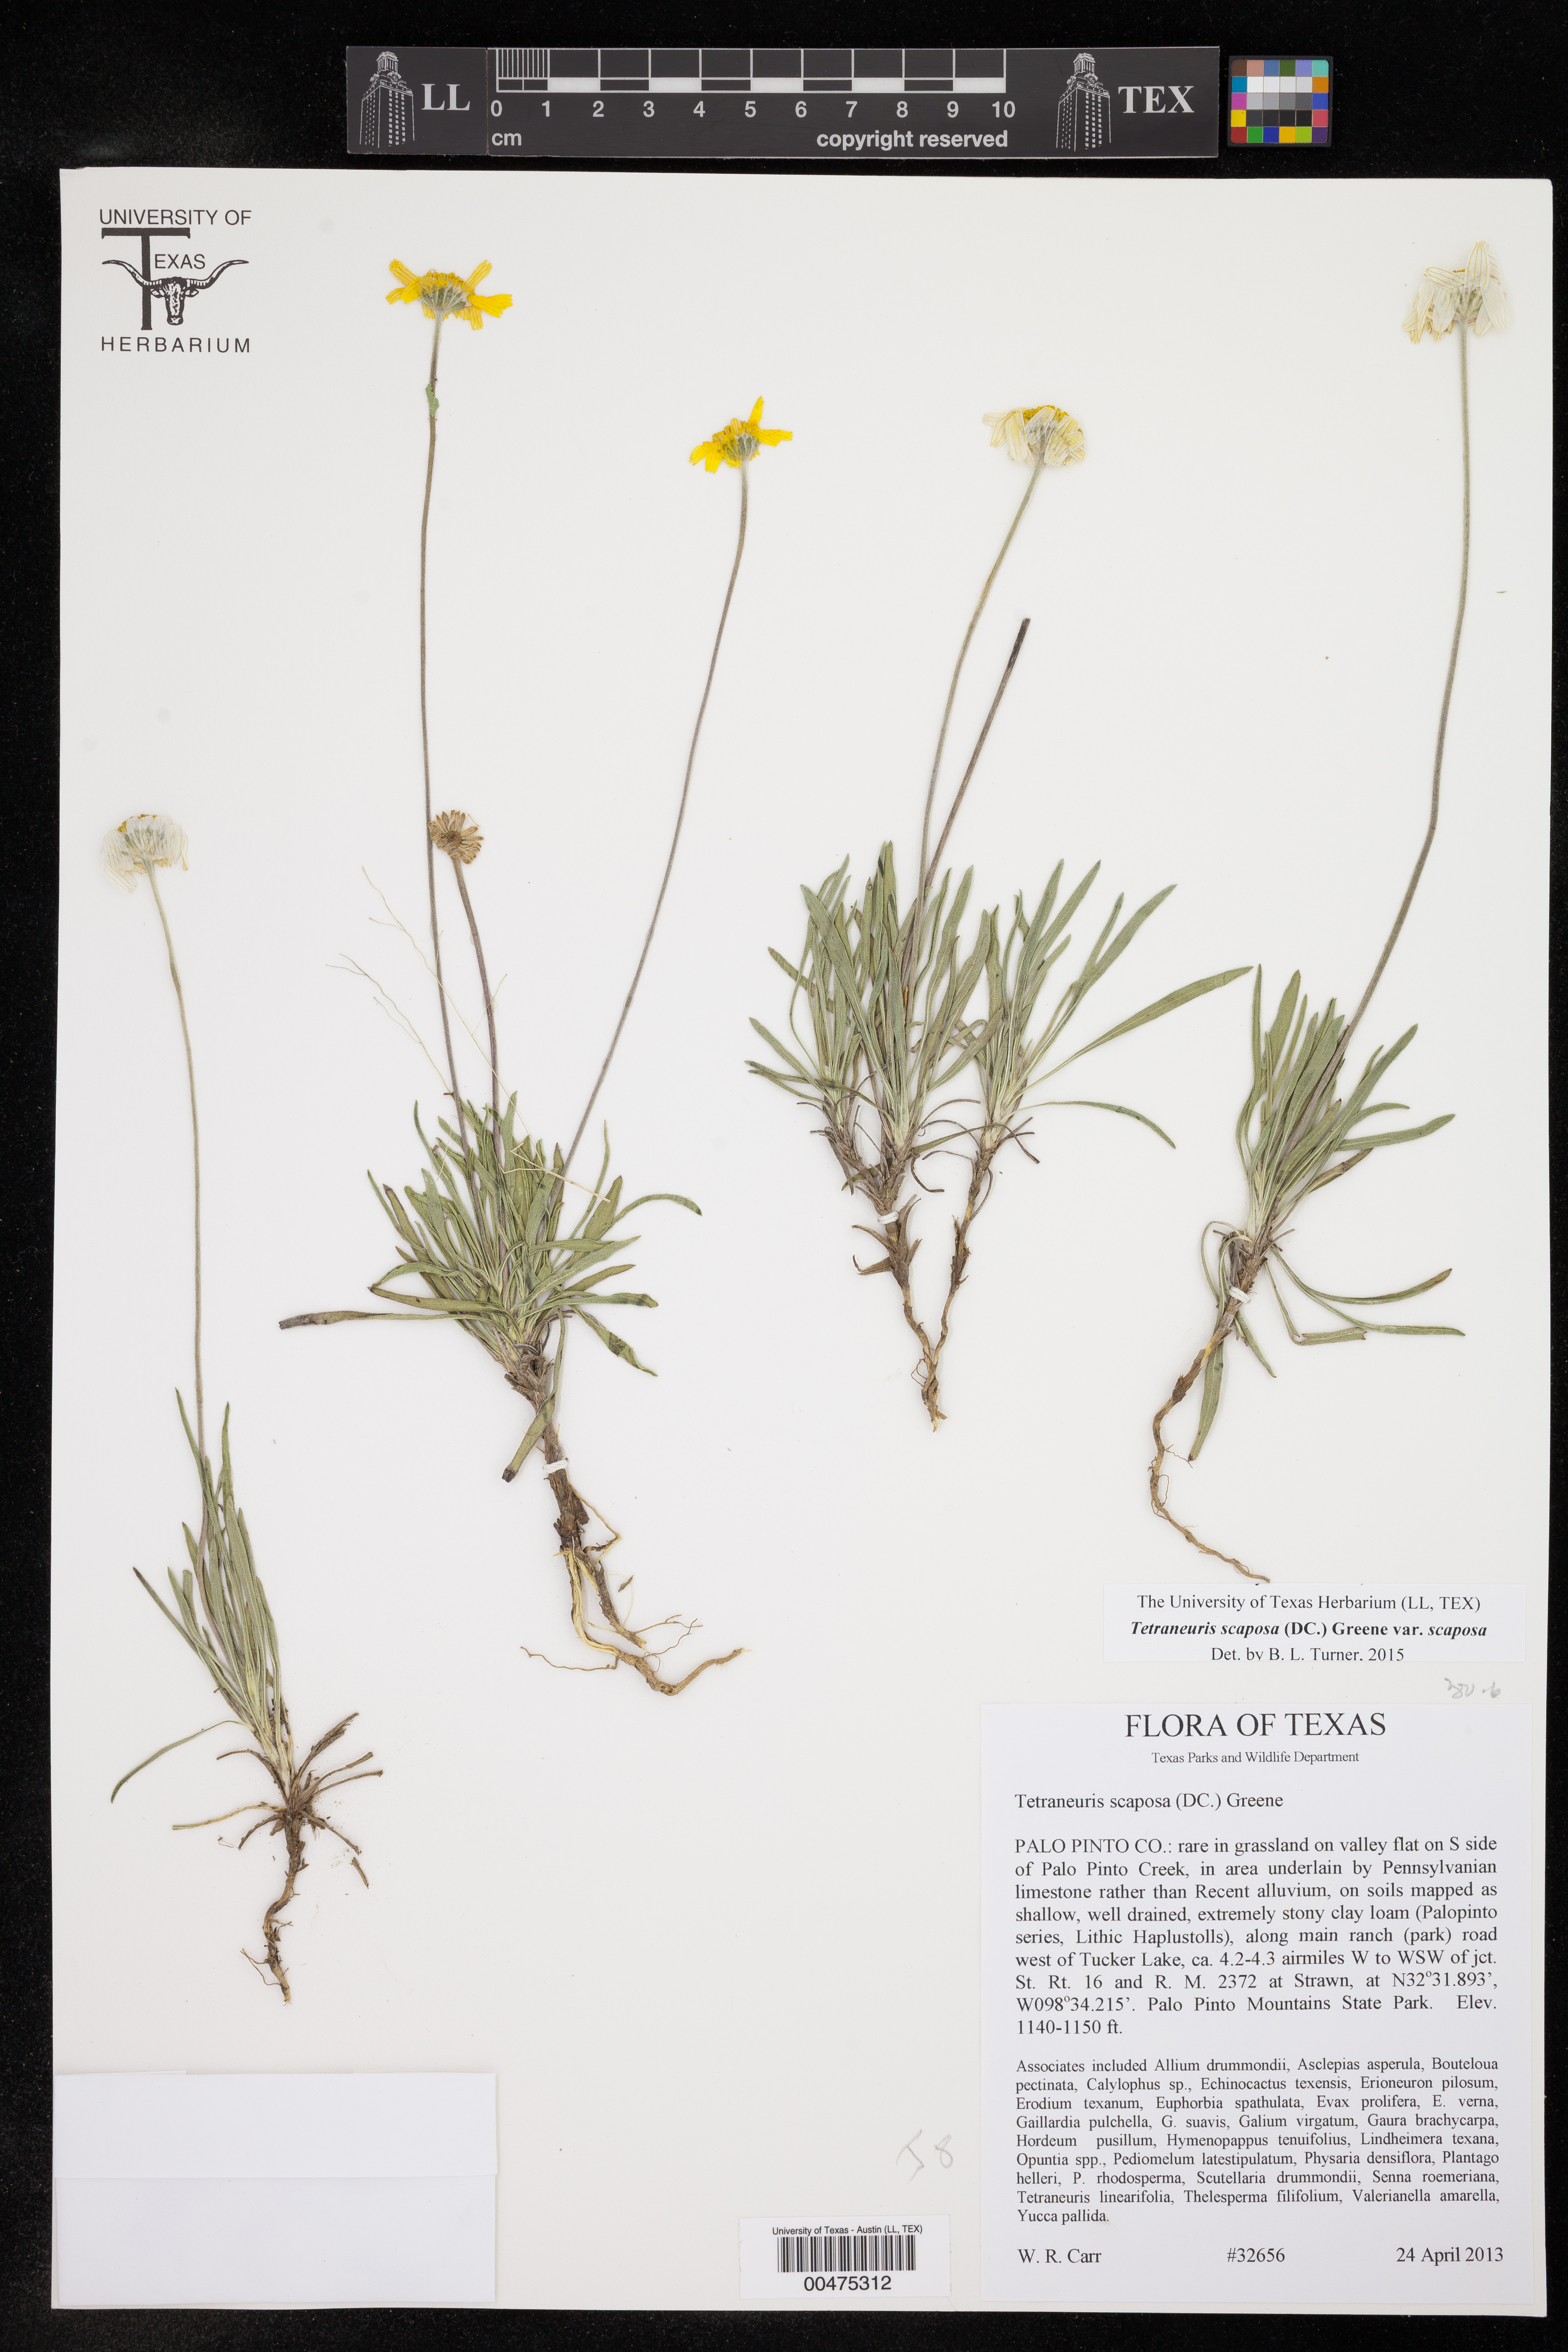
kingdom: Plantae
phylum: Tracheophyta
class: Magnoliopsida
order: Asterales
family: Asteraceae
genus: Tetraneuris
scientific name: Tetraneuris scaposa
